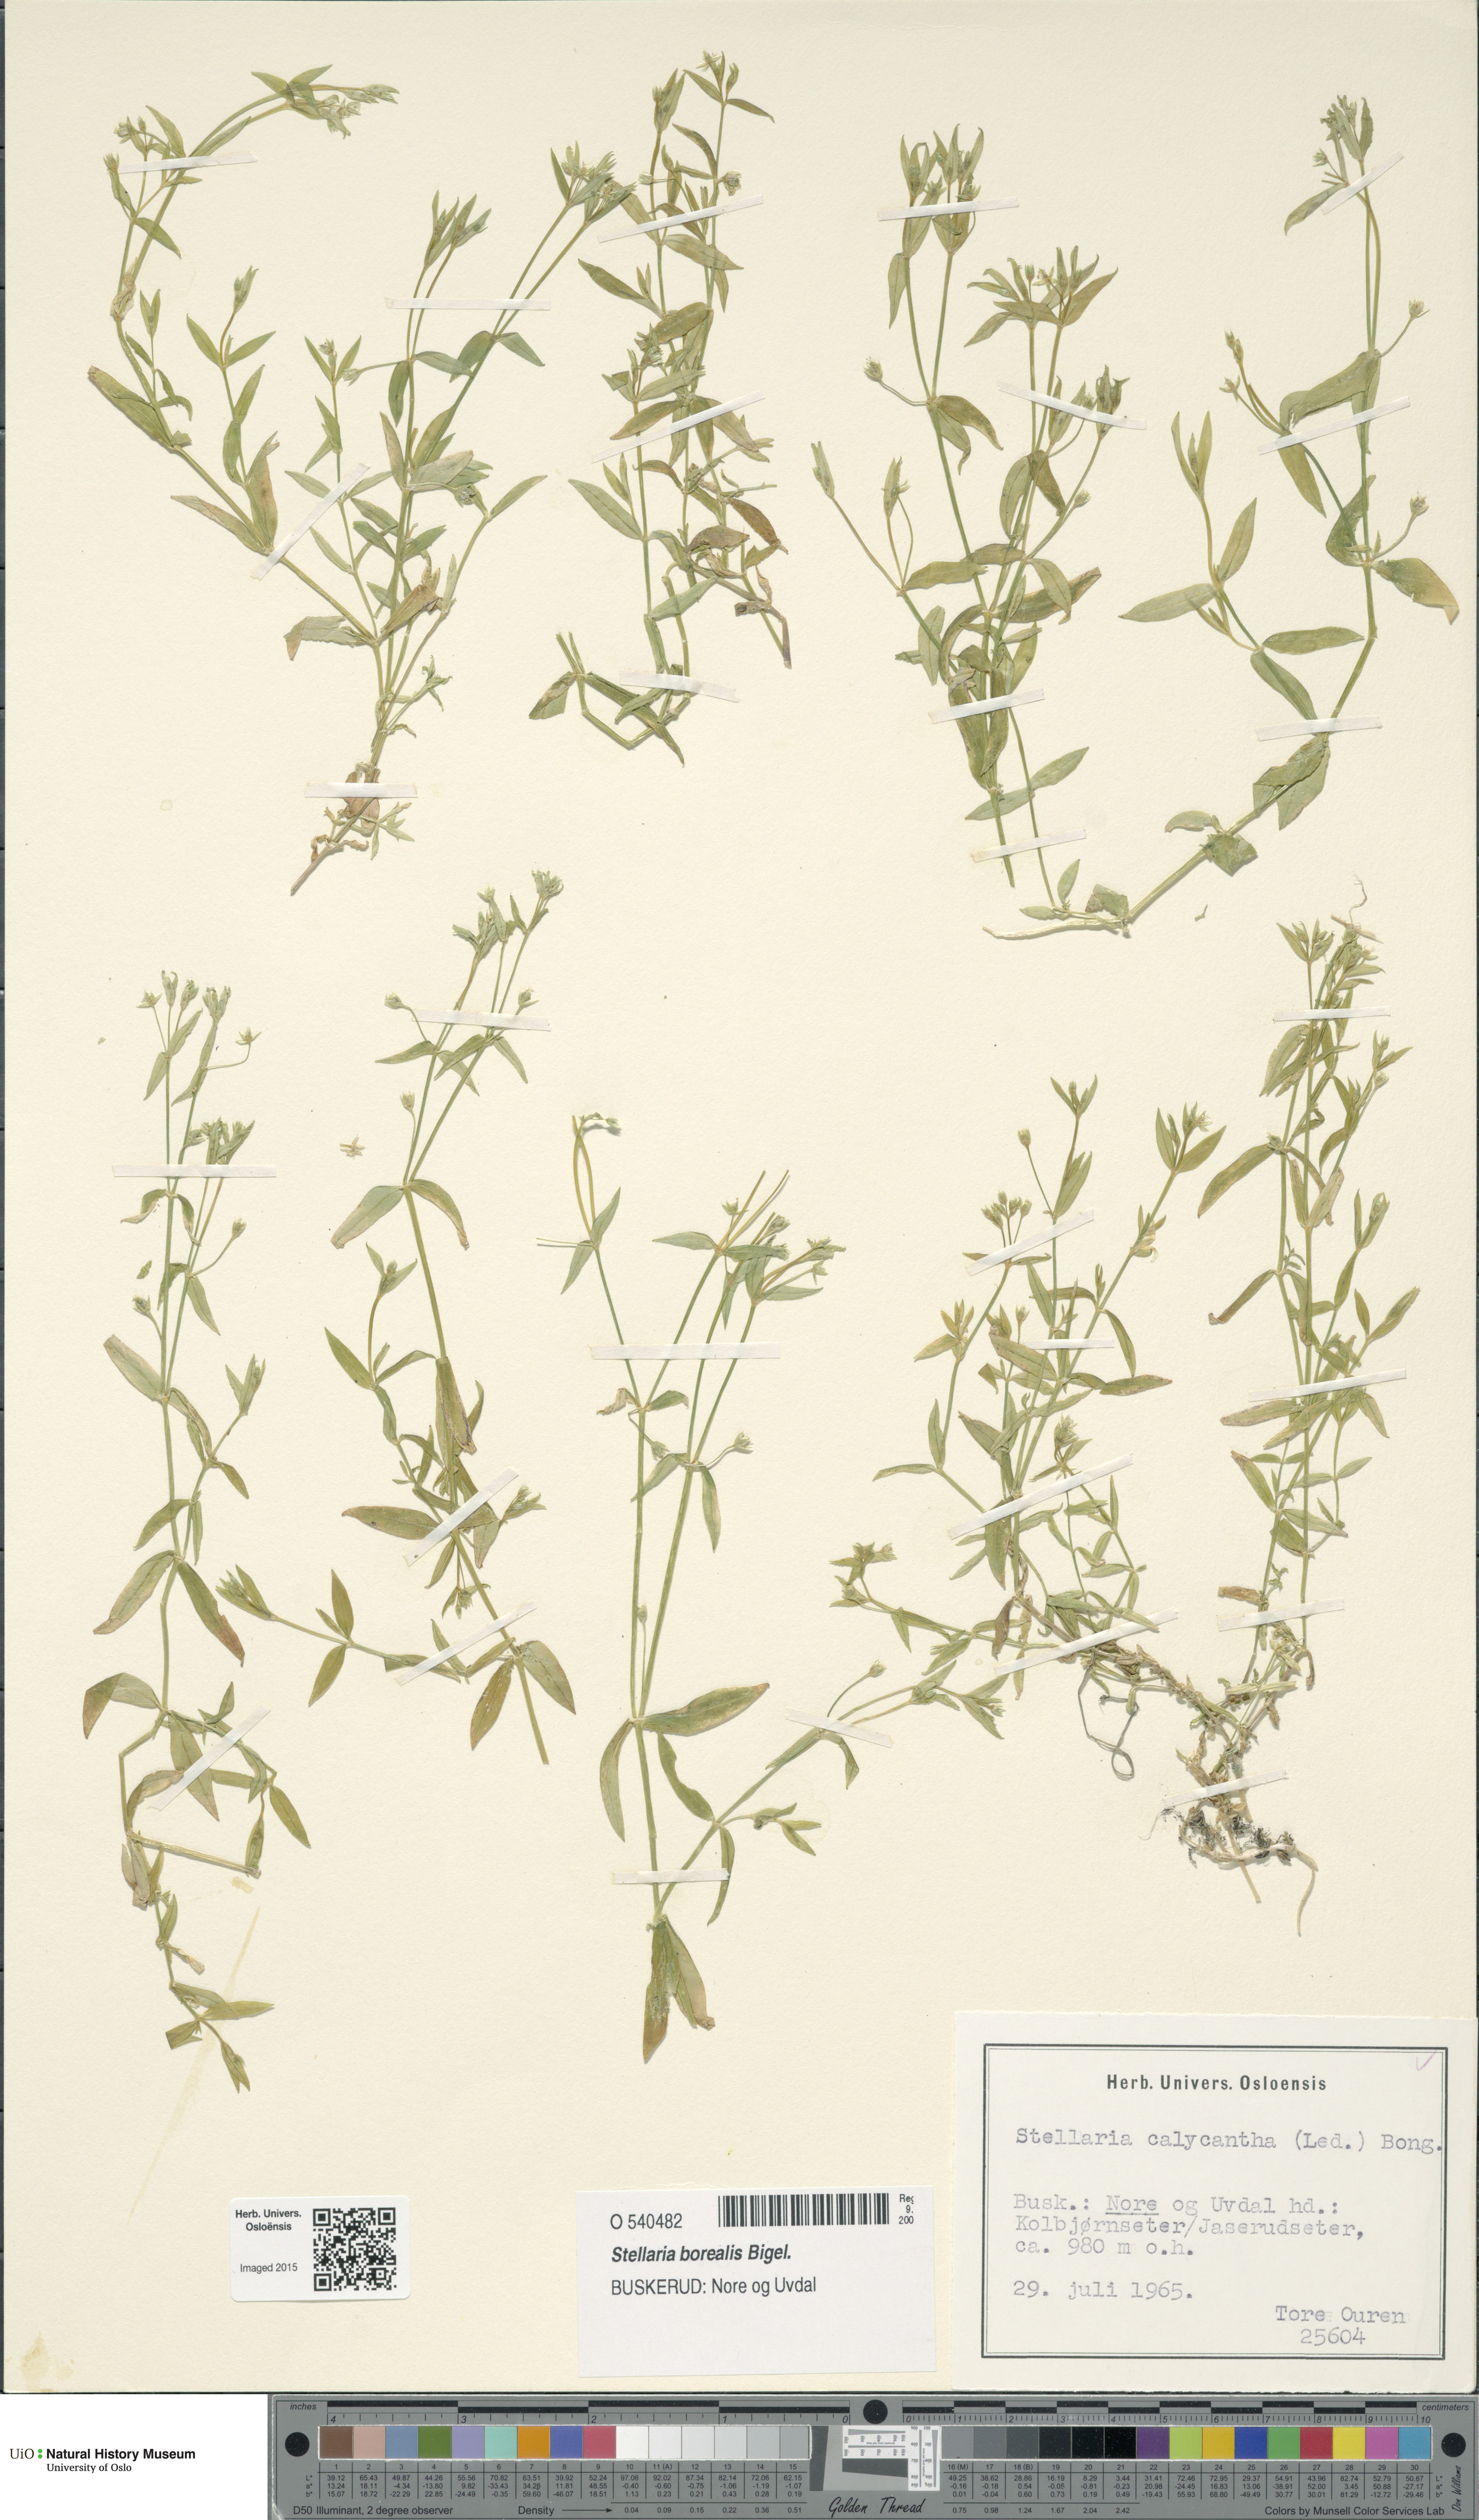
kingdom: Plantae
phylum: Tracheophyta
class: Magnoliopsida
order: Caryophyllales
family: Caryophyllaceae
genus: Stellaria
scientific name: Stellaria borealis
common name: Boreal starwort
